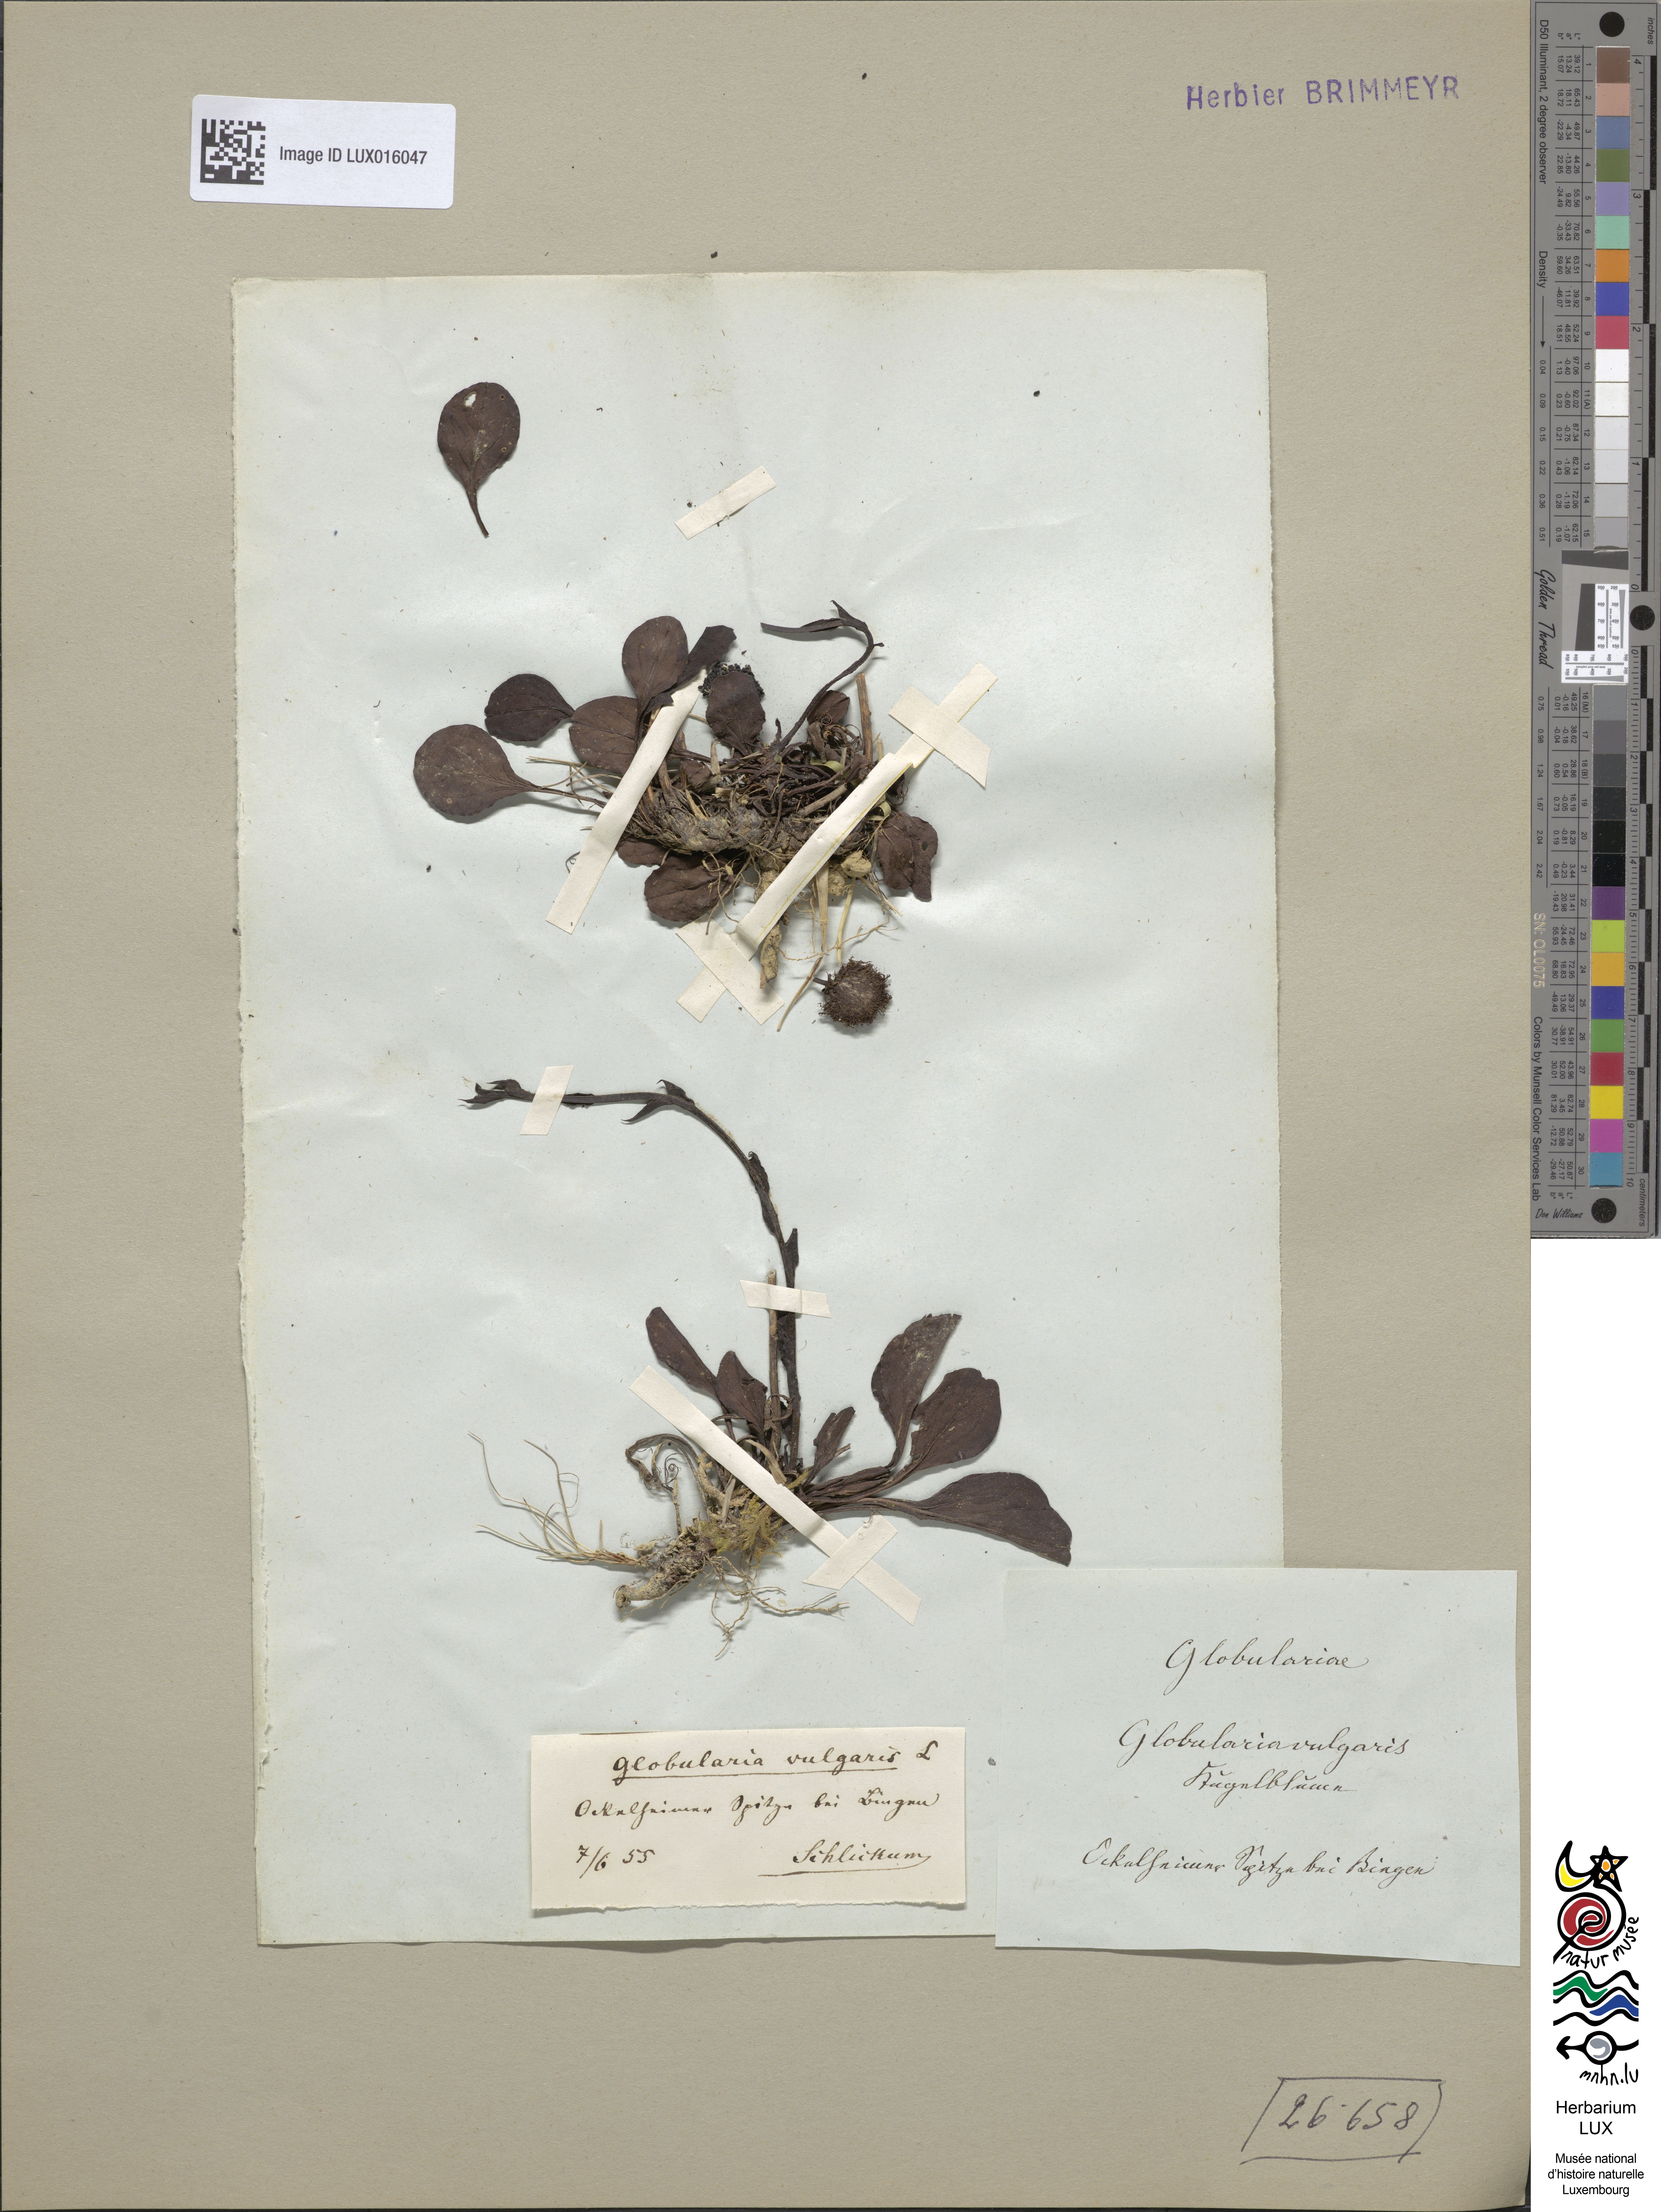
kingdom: Plantae
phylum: Tracheophyta
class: Magnoliopsida
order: Lamiales
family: Plantaginaceae
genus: Globularia
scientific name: Globularia bisnagarica
